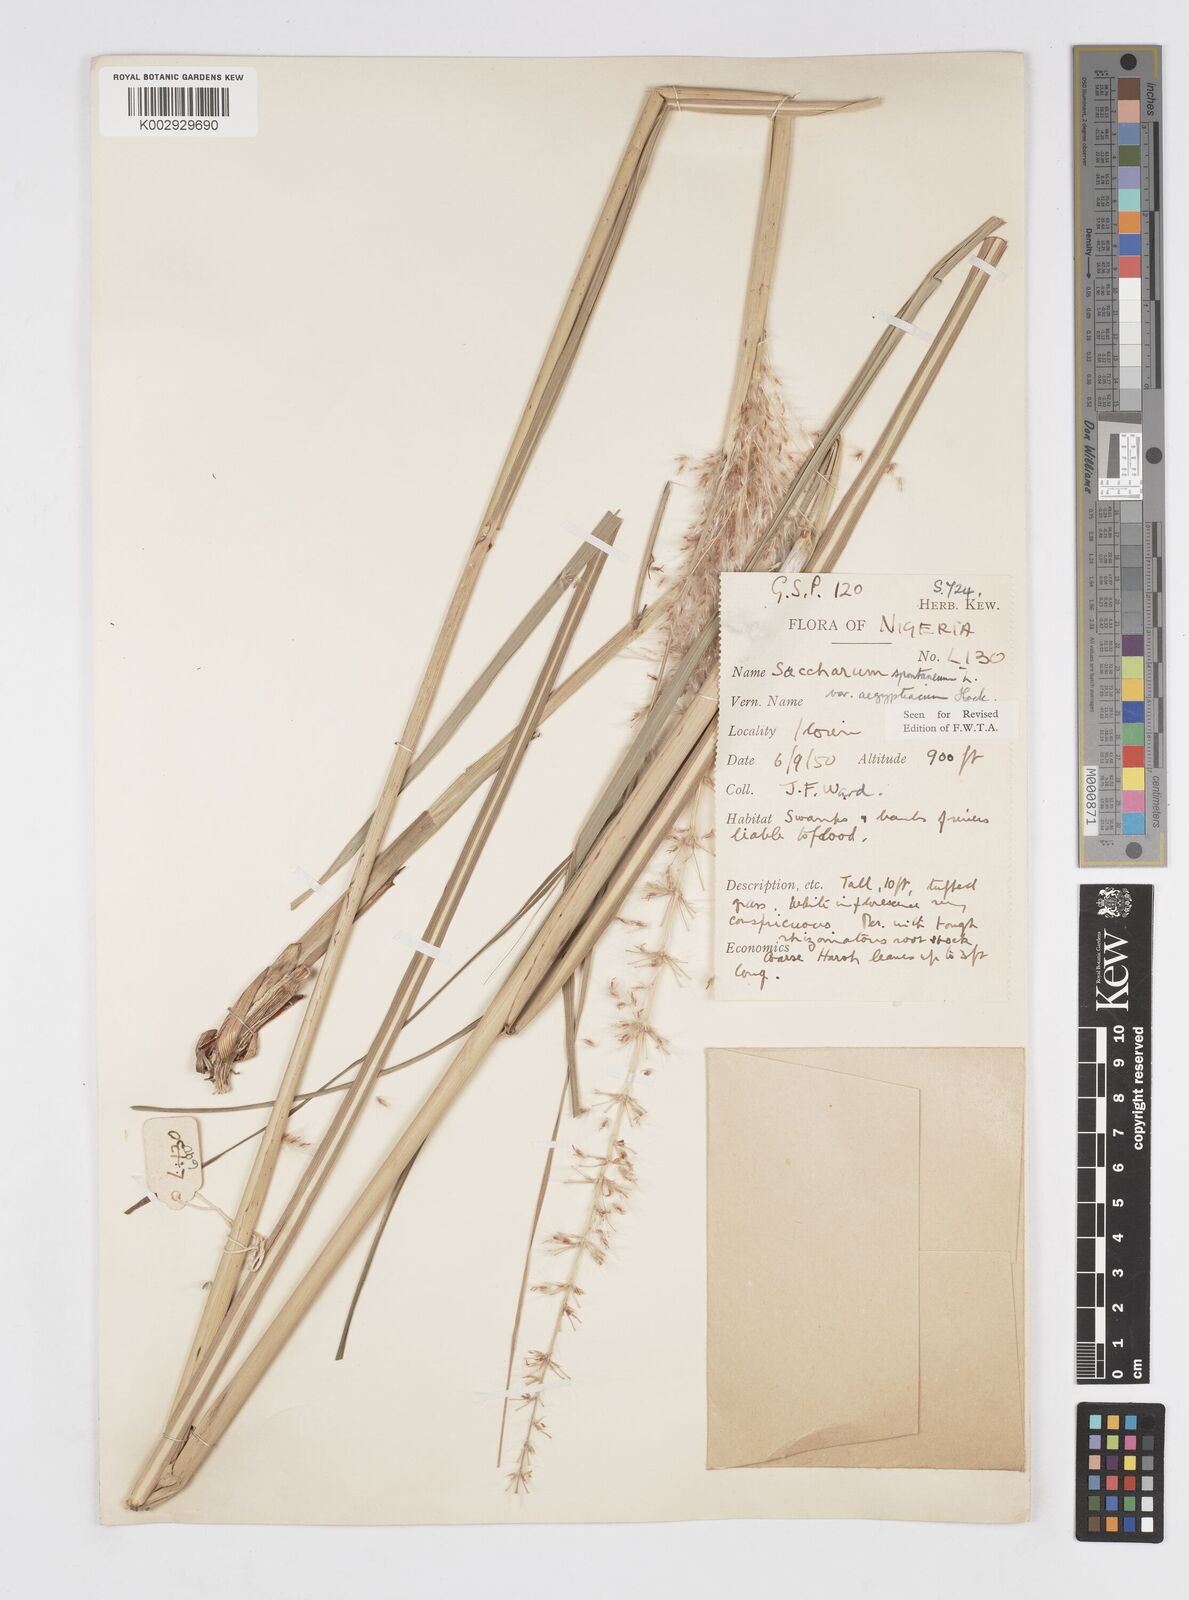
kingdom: Plantae
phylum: Tracheophyta
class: Liliopsida
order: Poales
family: Poaceae
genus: Saccharum
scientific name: Saccharum spontaneum
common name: Wild sugarcane
